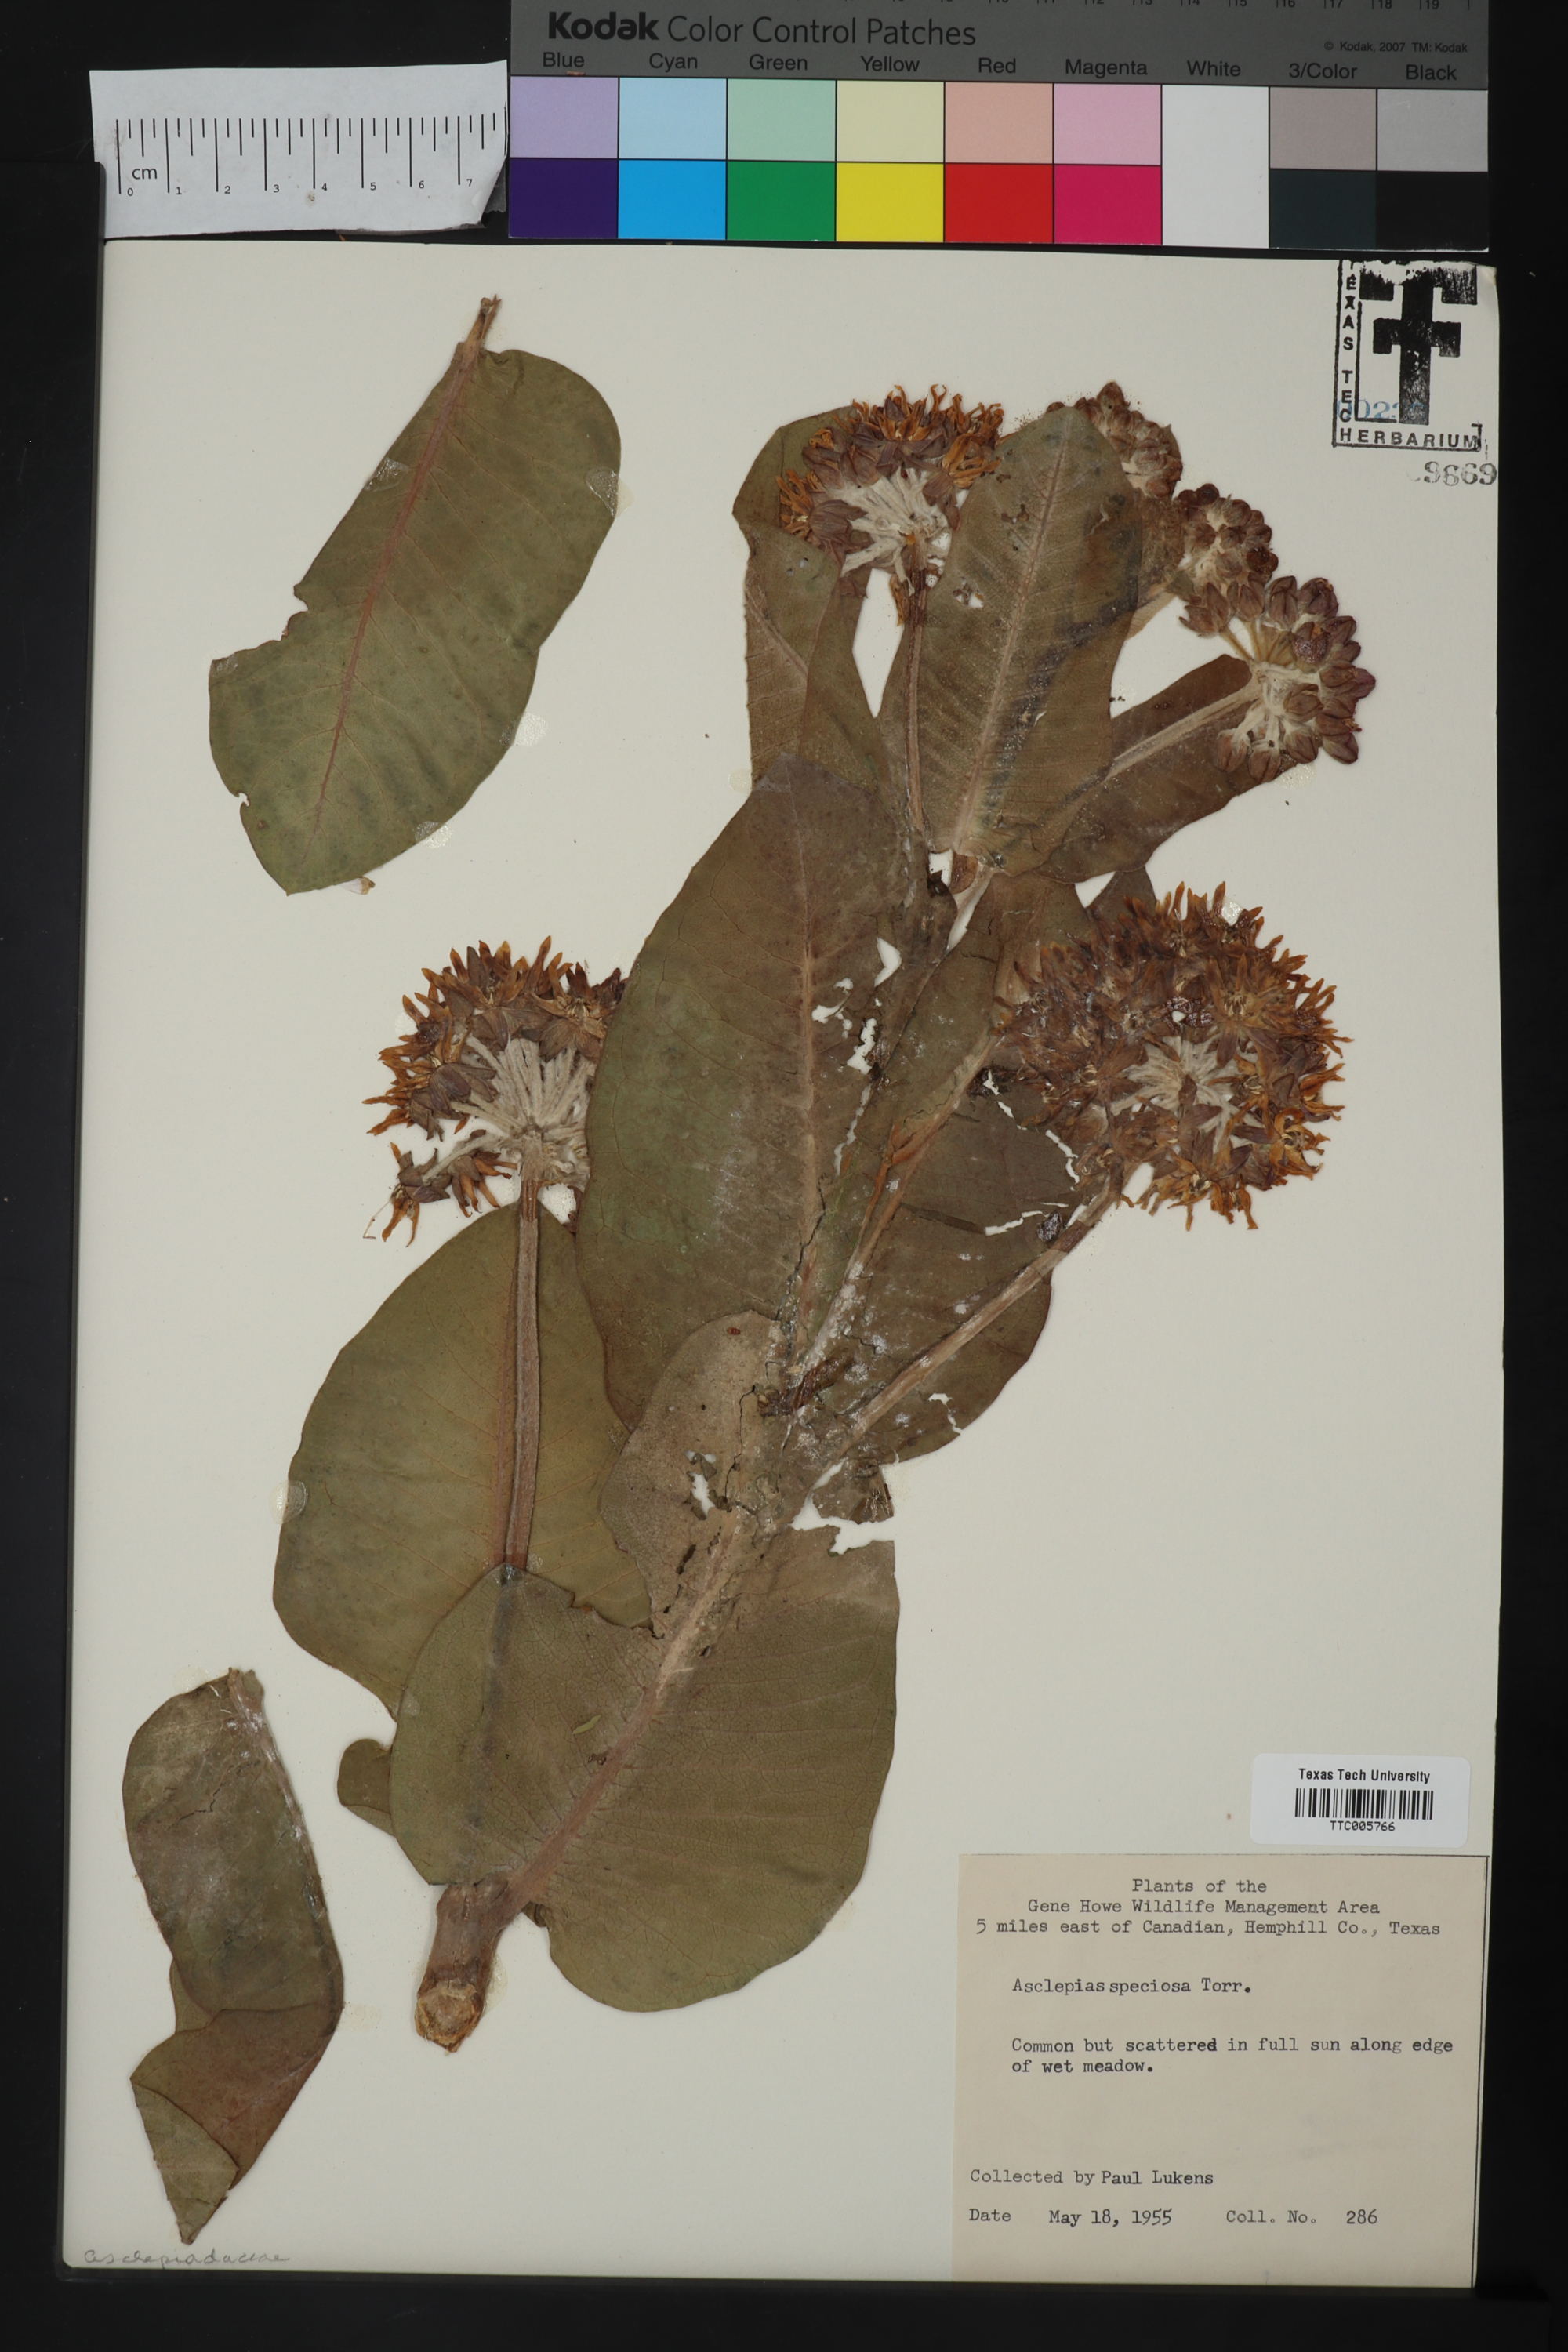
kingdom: Plantae
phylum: Tracheophyta
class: Magnoliopsida
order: Gentianales
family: Apocynaceae
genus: Asclepias
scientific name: Asclepias speciosa
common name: Showy milkweed
